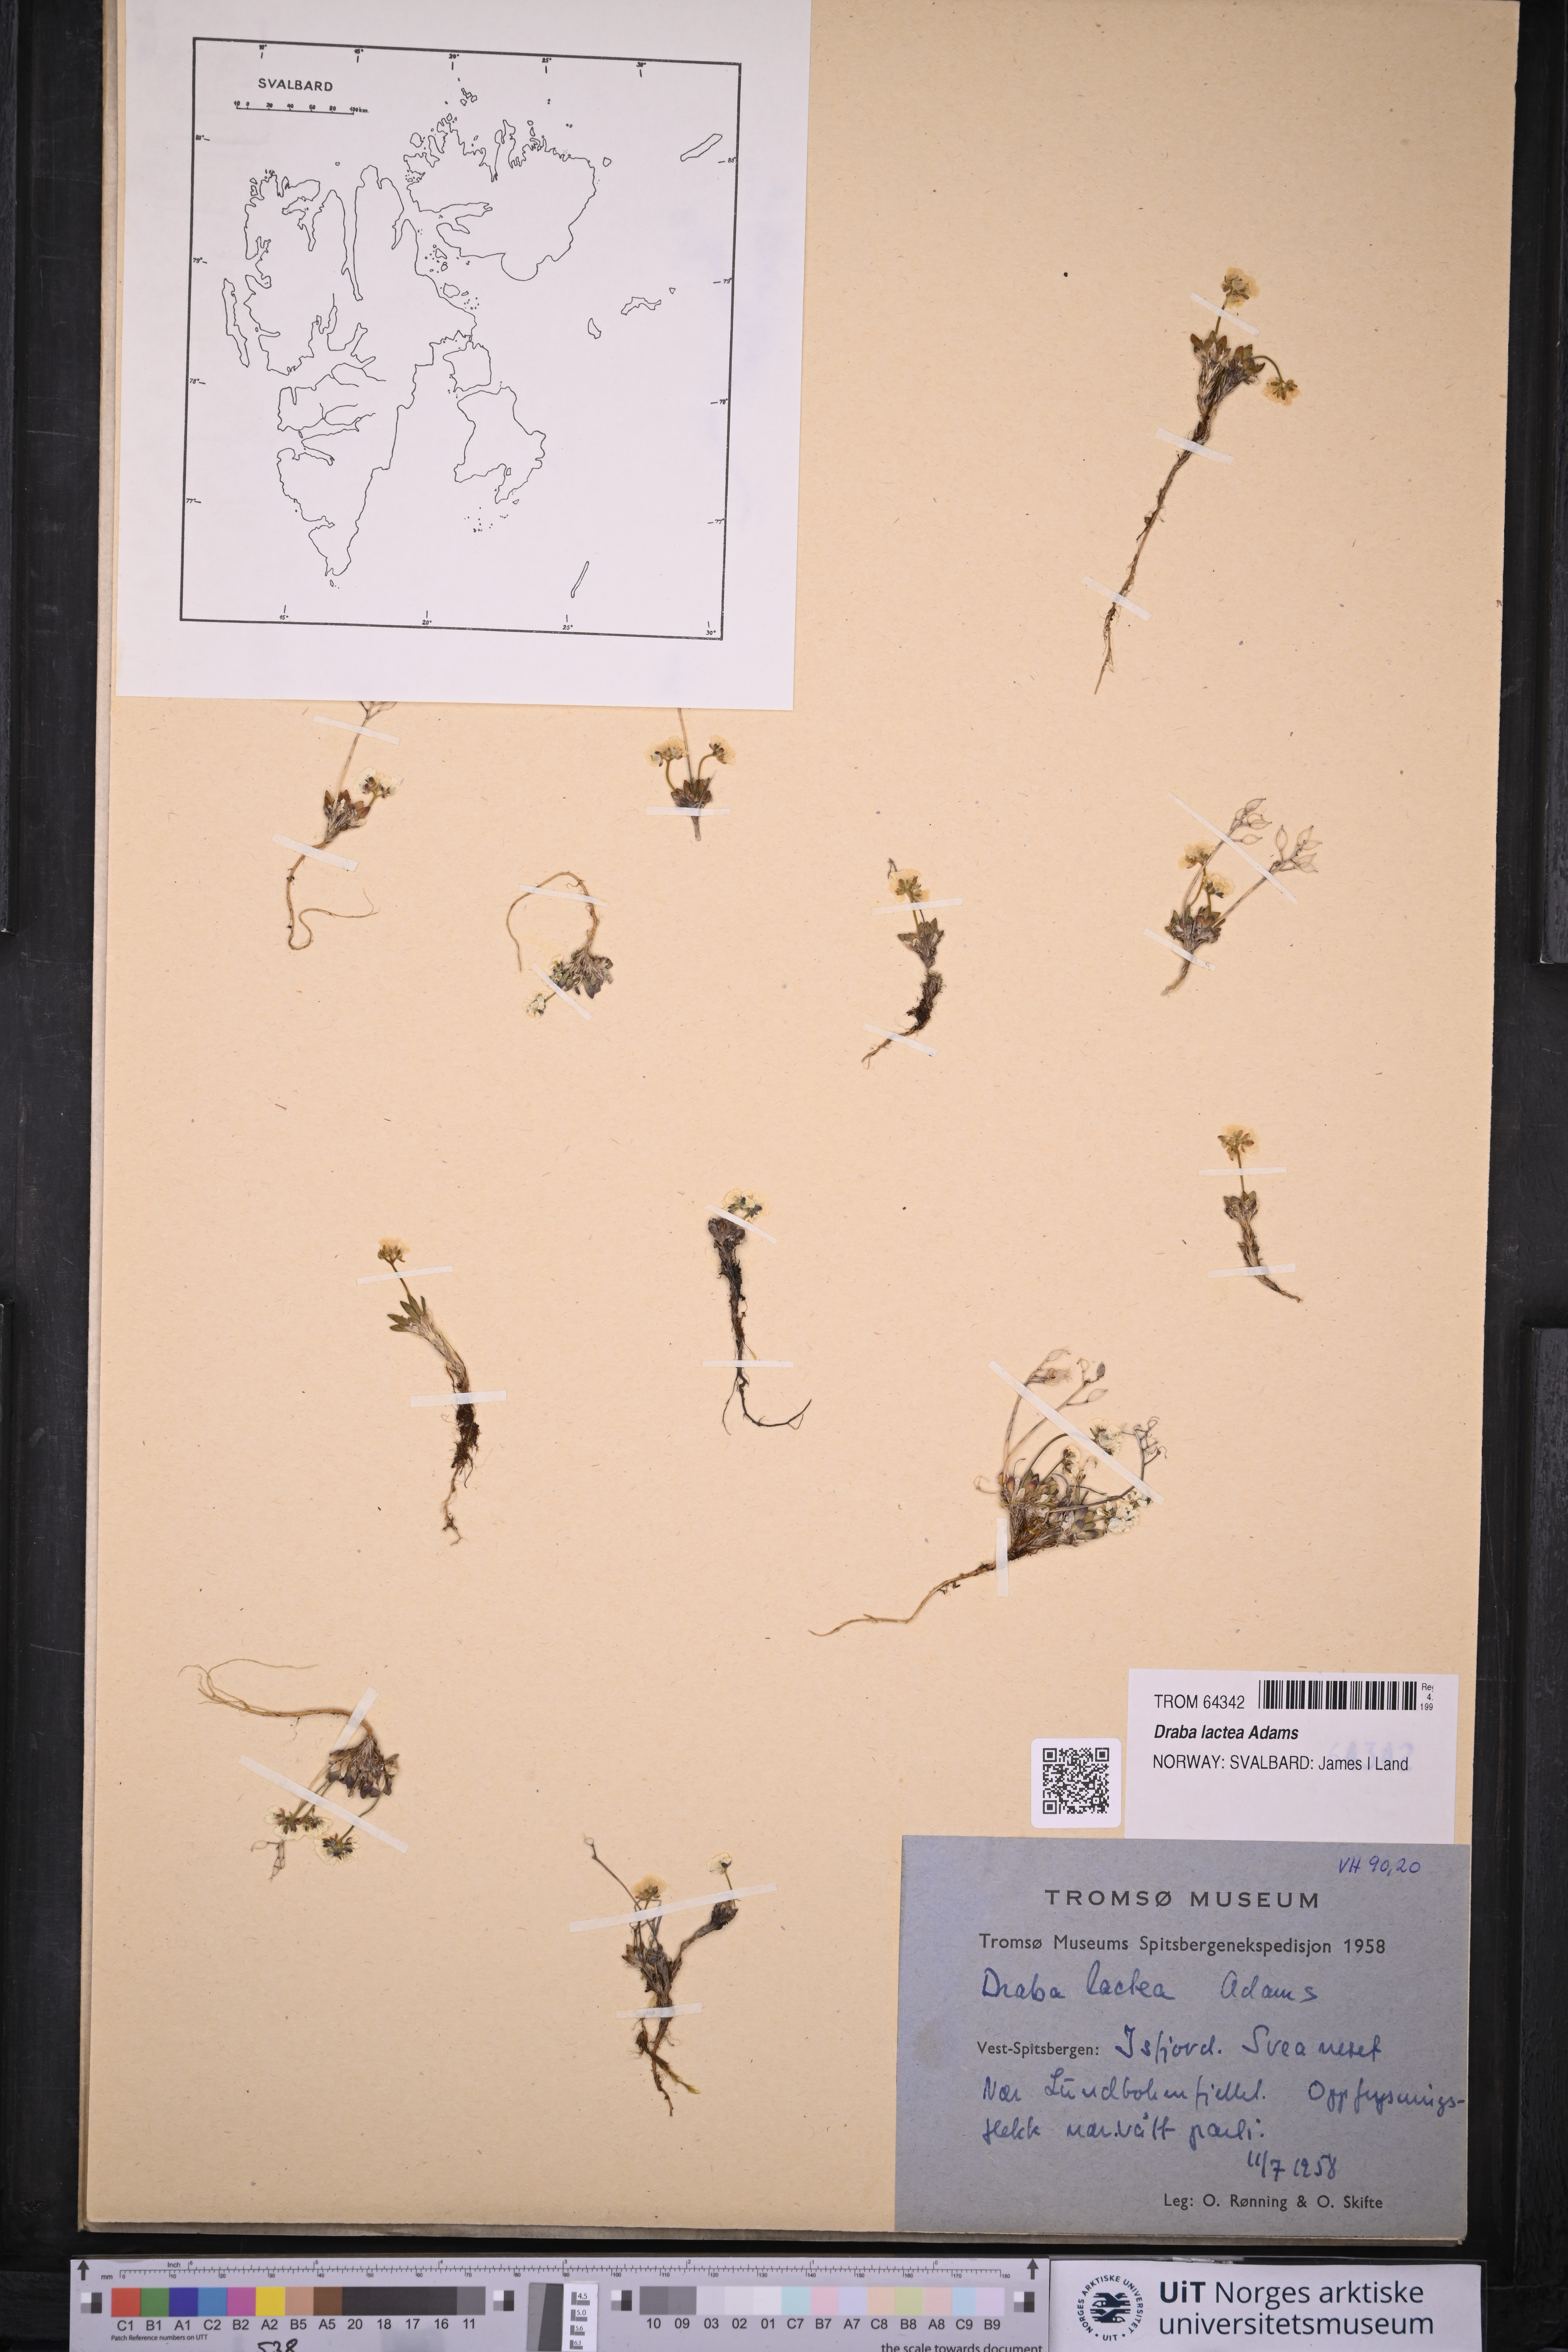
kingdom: Plantae
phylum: Tracheophyta
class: Magnoliopsida
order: Brassicales
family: Brassicaceae
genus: Draba
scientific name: Draba lactea
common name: Milky draba
